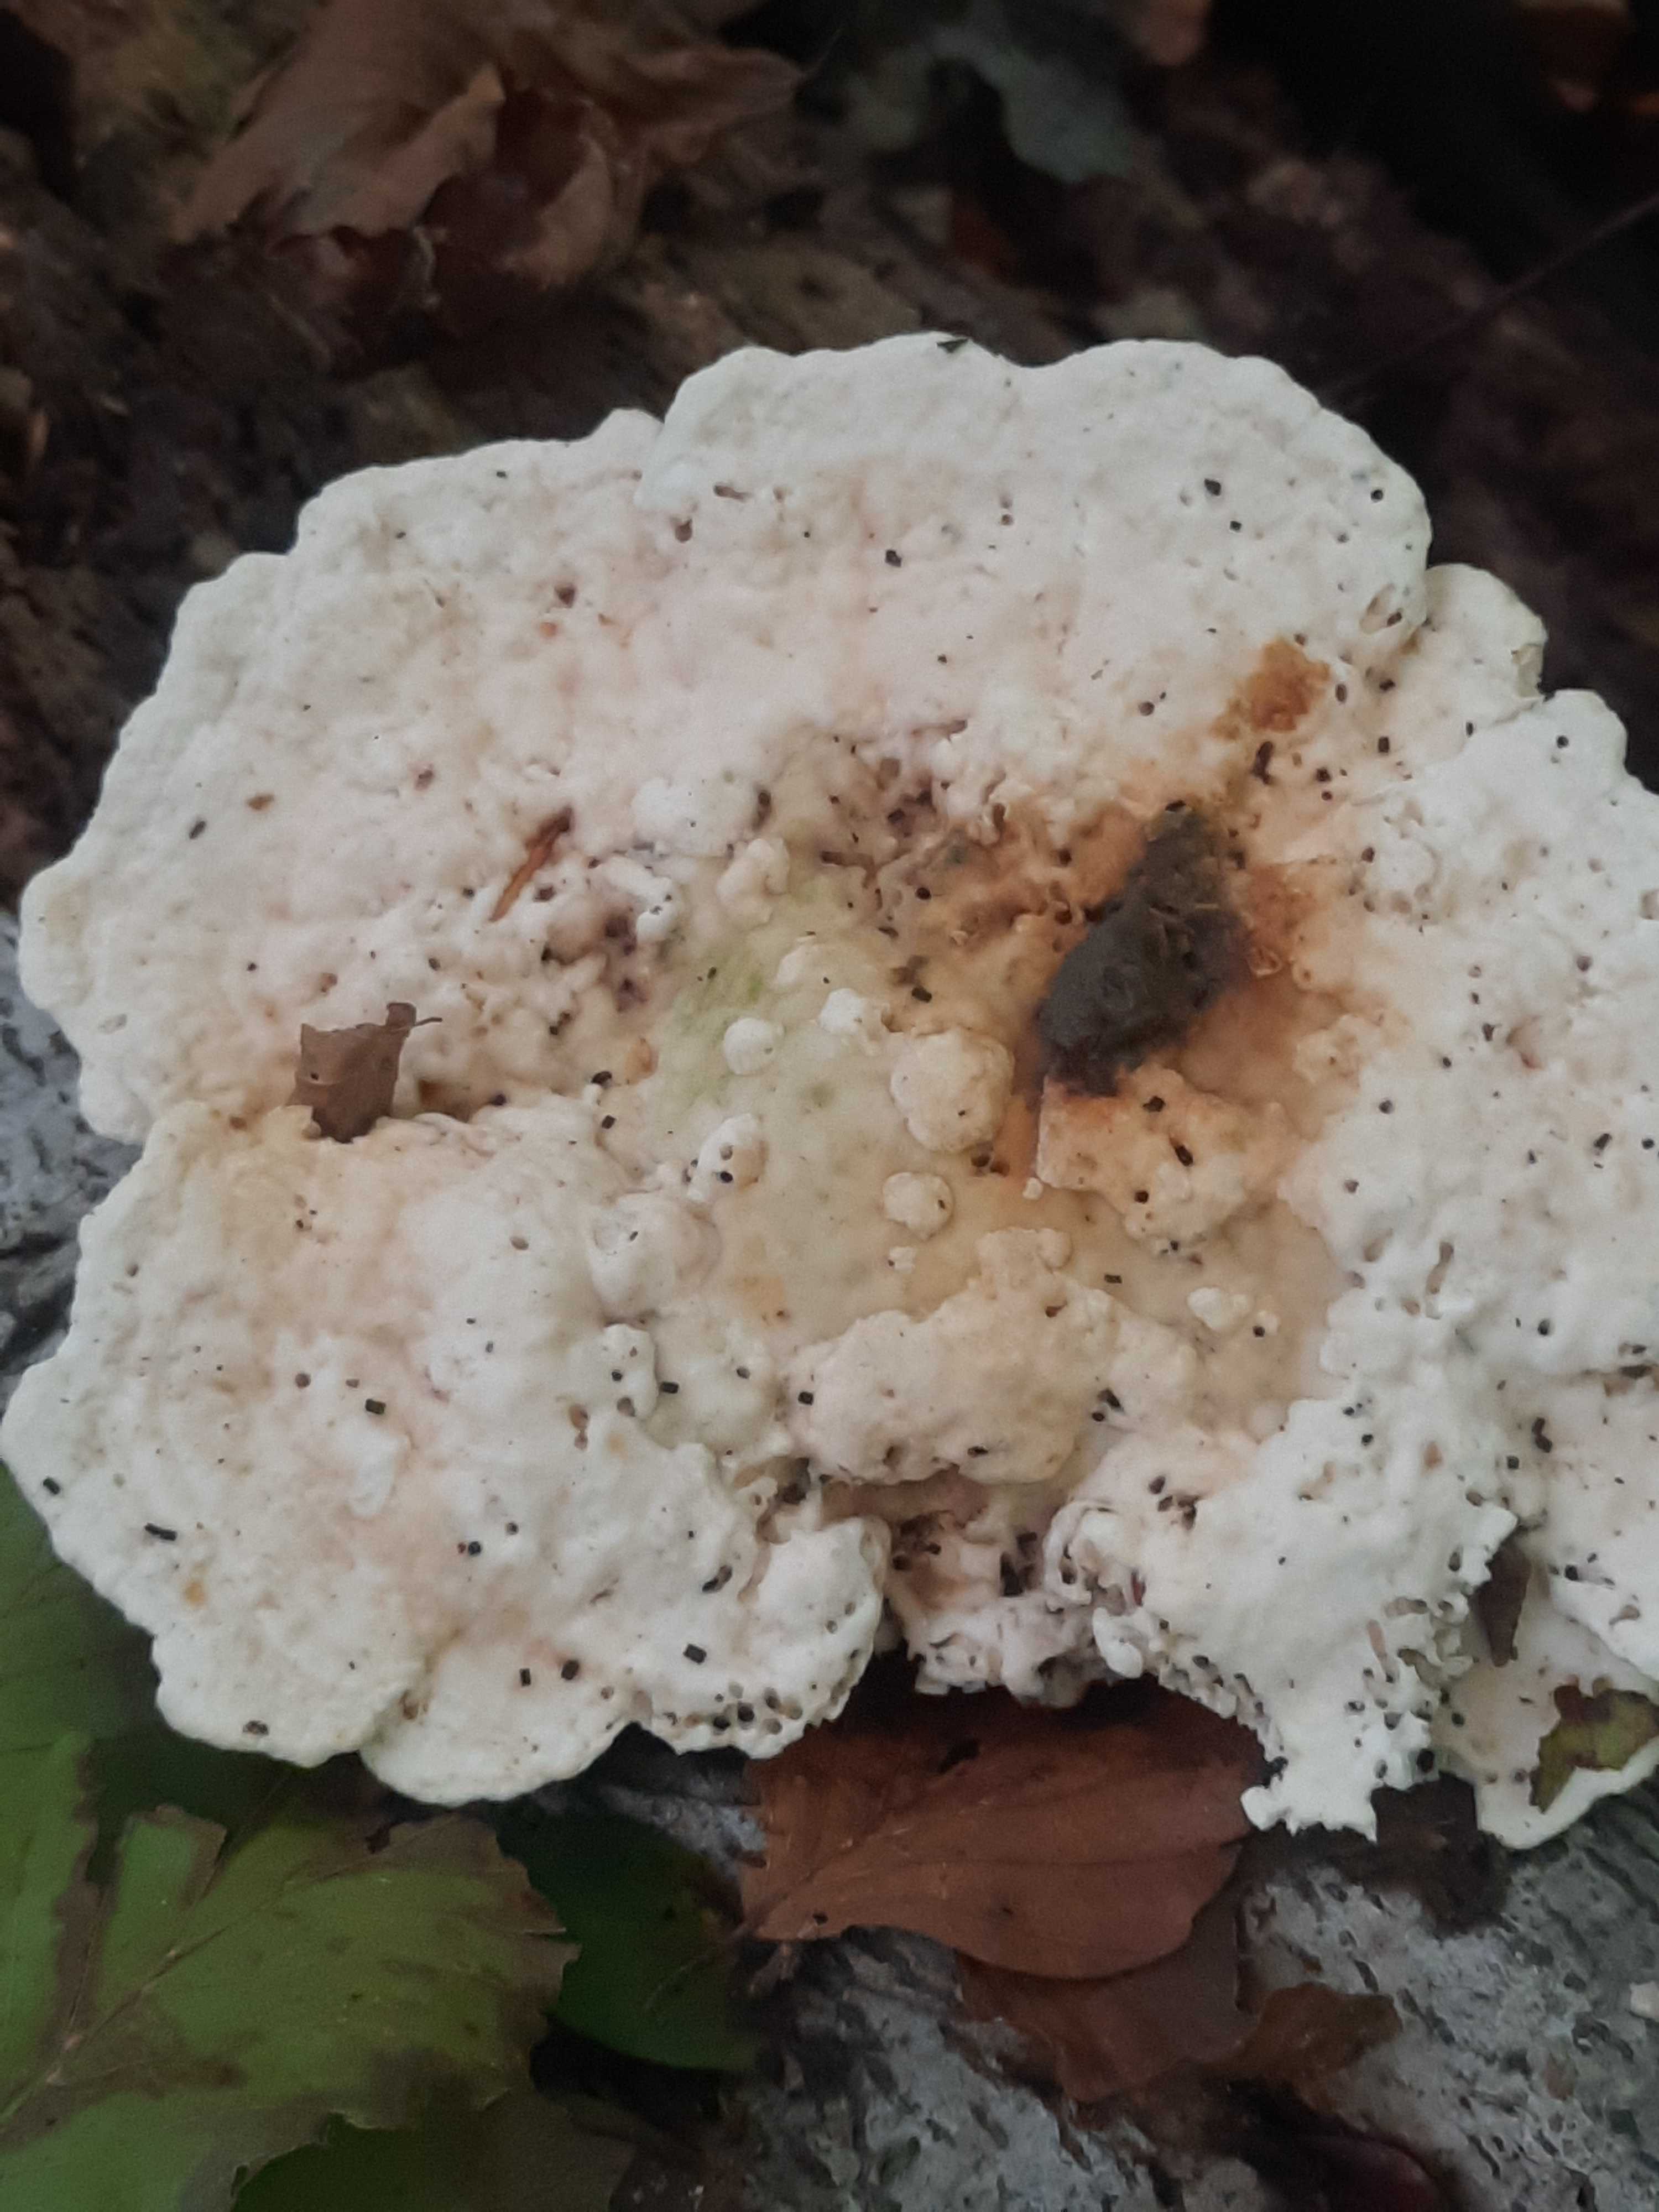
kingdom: Fungi
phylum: Basidiomycota
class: Agaricomycetes
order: Polyporales
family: Polyporaceae
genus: Trametes
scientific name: Trametes gibbosa
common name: puklet læderporesvamp
